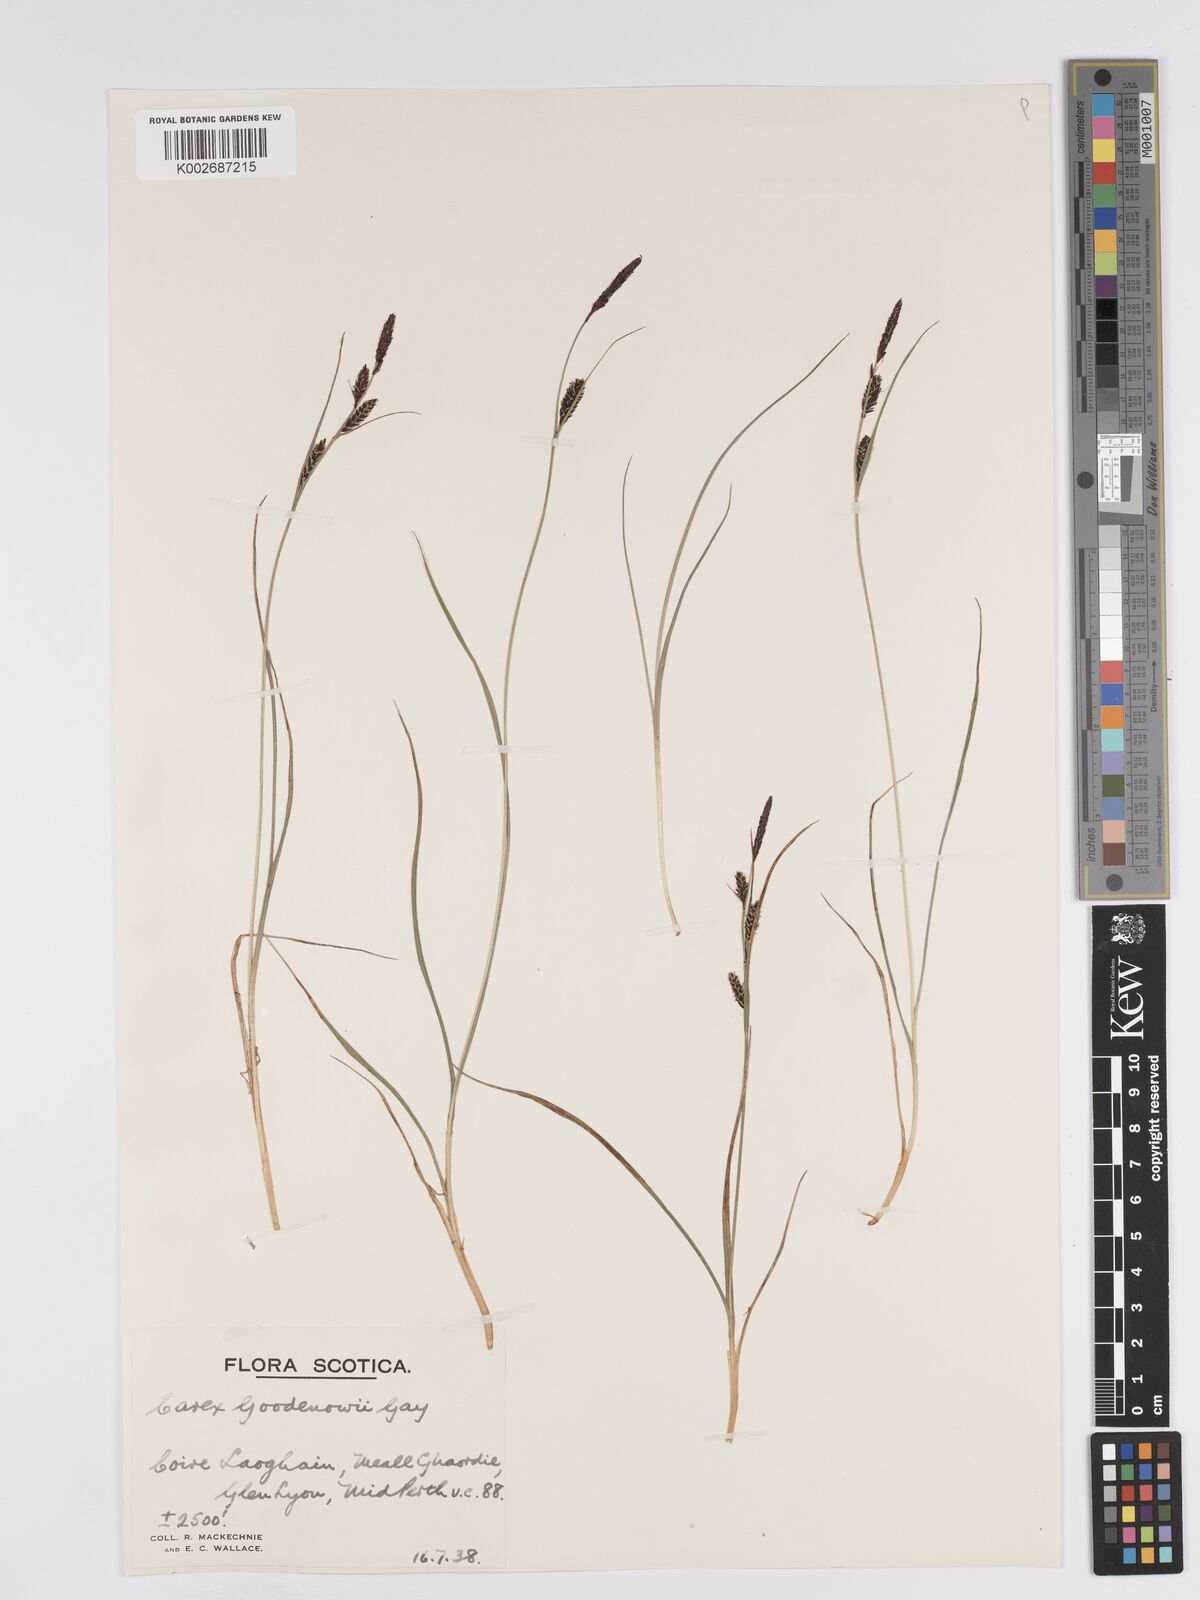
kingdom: Plantae
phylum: Tracheophyta
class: Liliopsida
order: Poales
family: Cyperaceae
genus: Carex
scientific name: Carex nigra
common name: Common sedge
